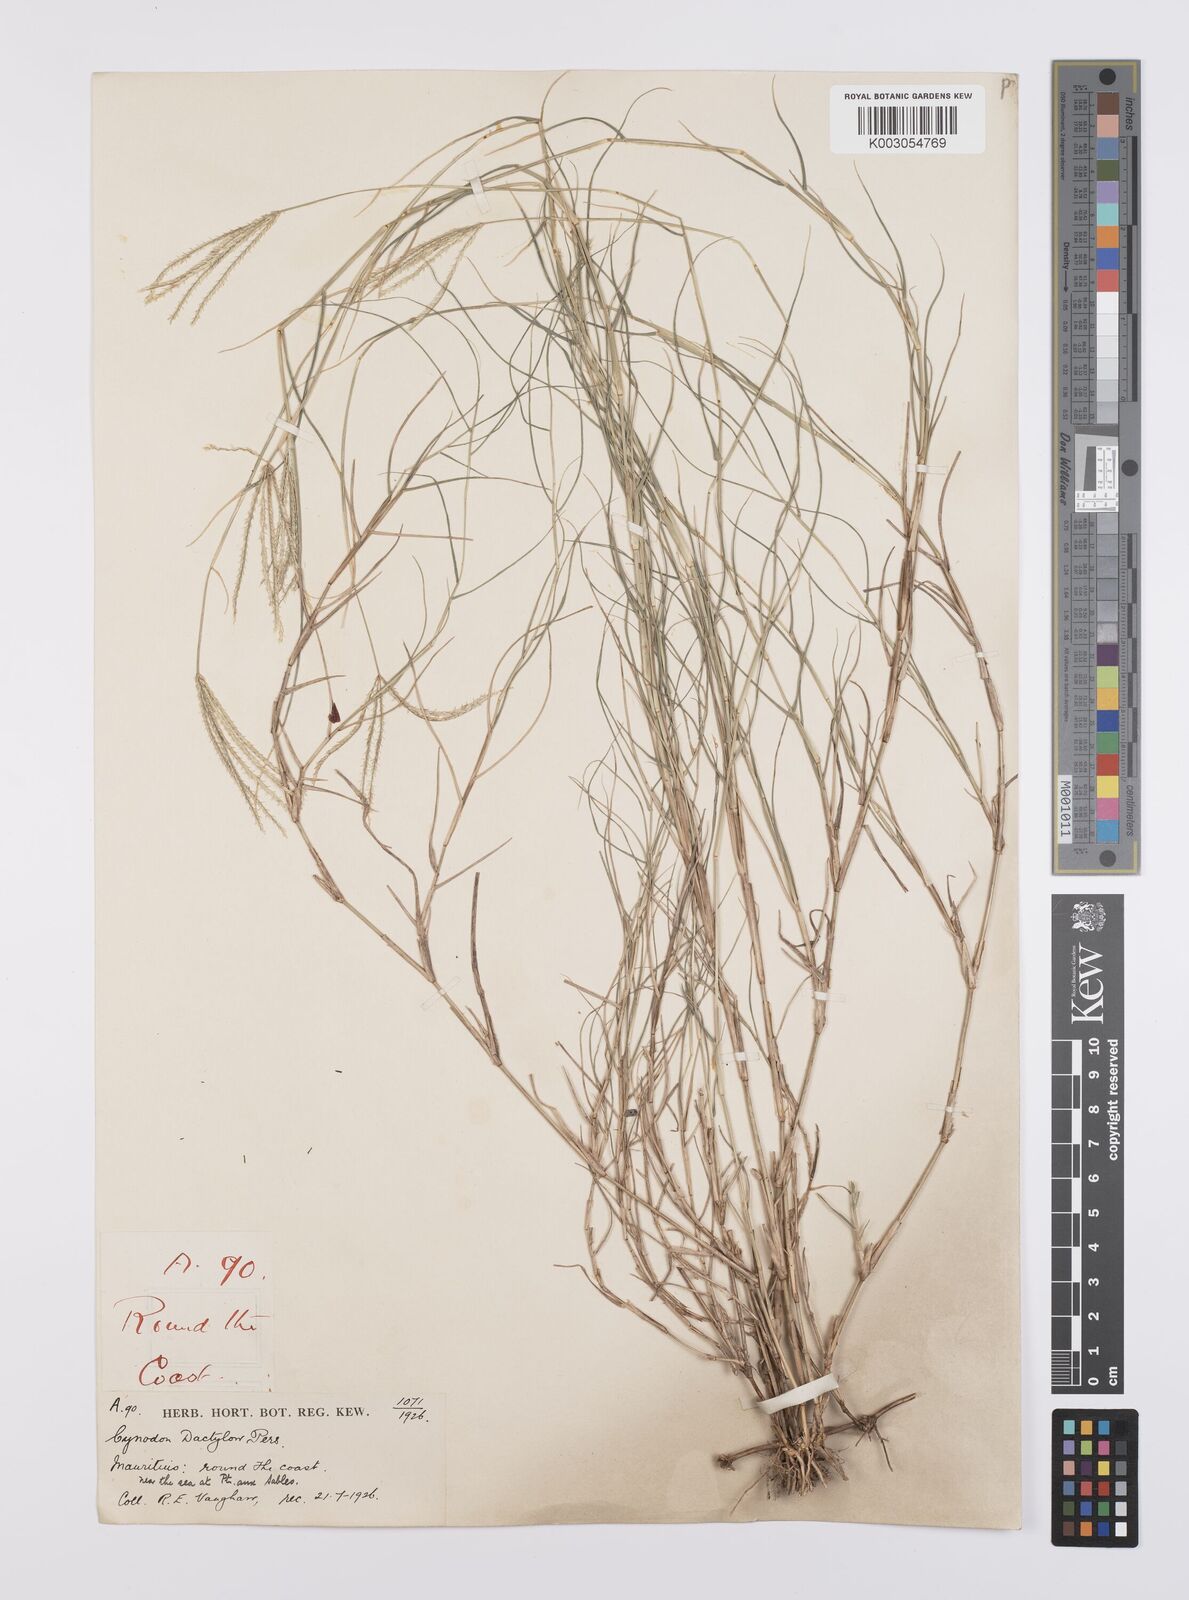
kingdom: Plantae
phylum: Tracheophyta
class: Liliopsida
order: Poales
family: Poaceae
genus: Cynodon
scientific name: Cynodon dactylon
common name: Bermuda grass
